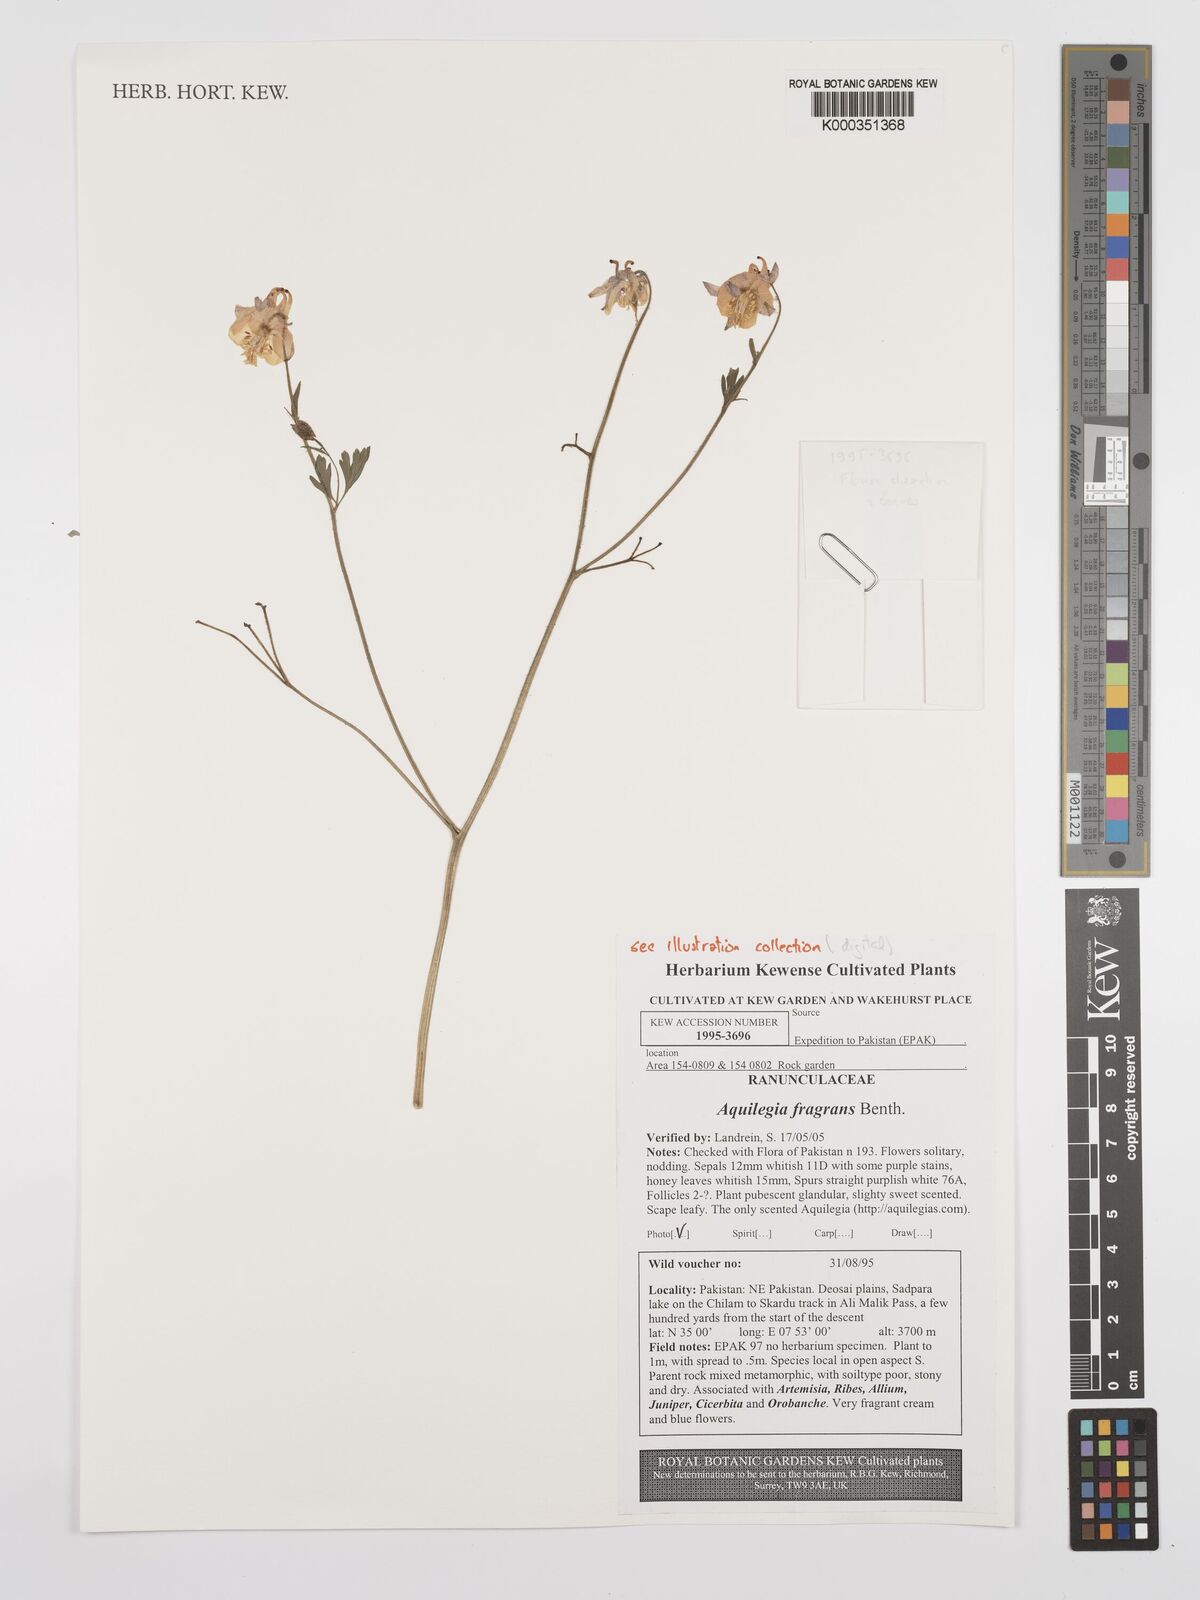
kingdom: Plantae
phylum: Tracheophyta
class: Magnoliopsida
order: Ranunculales
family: Ranunculaceae
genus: Aquilegia
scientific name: Aquilegia fragrans
